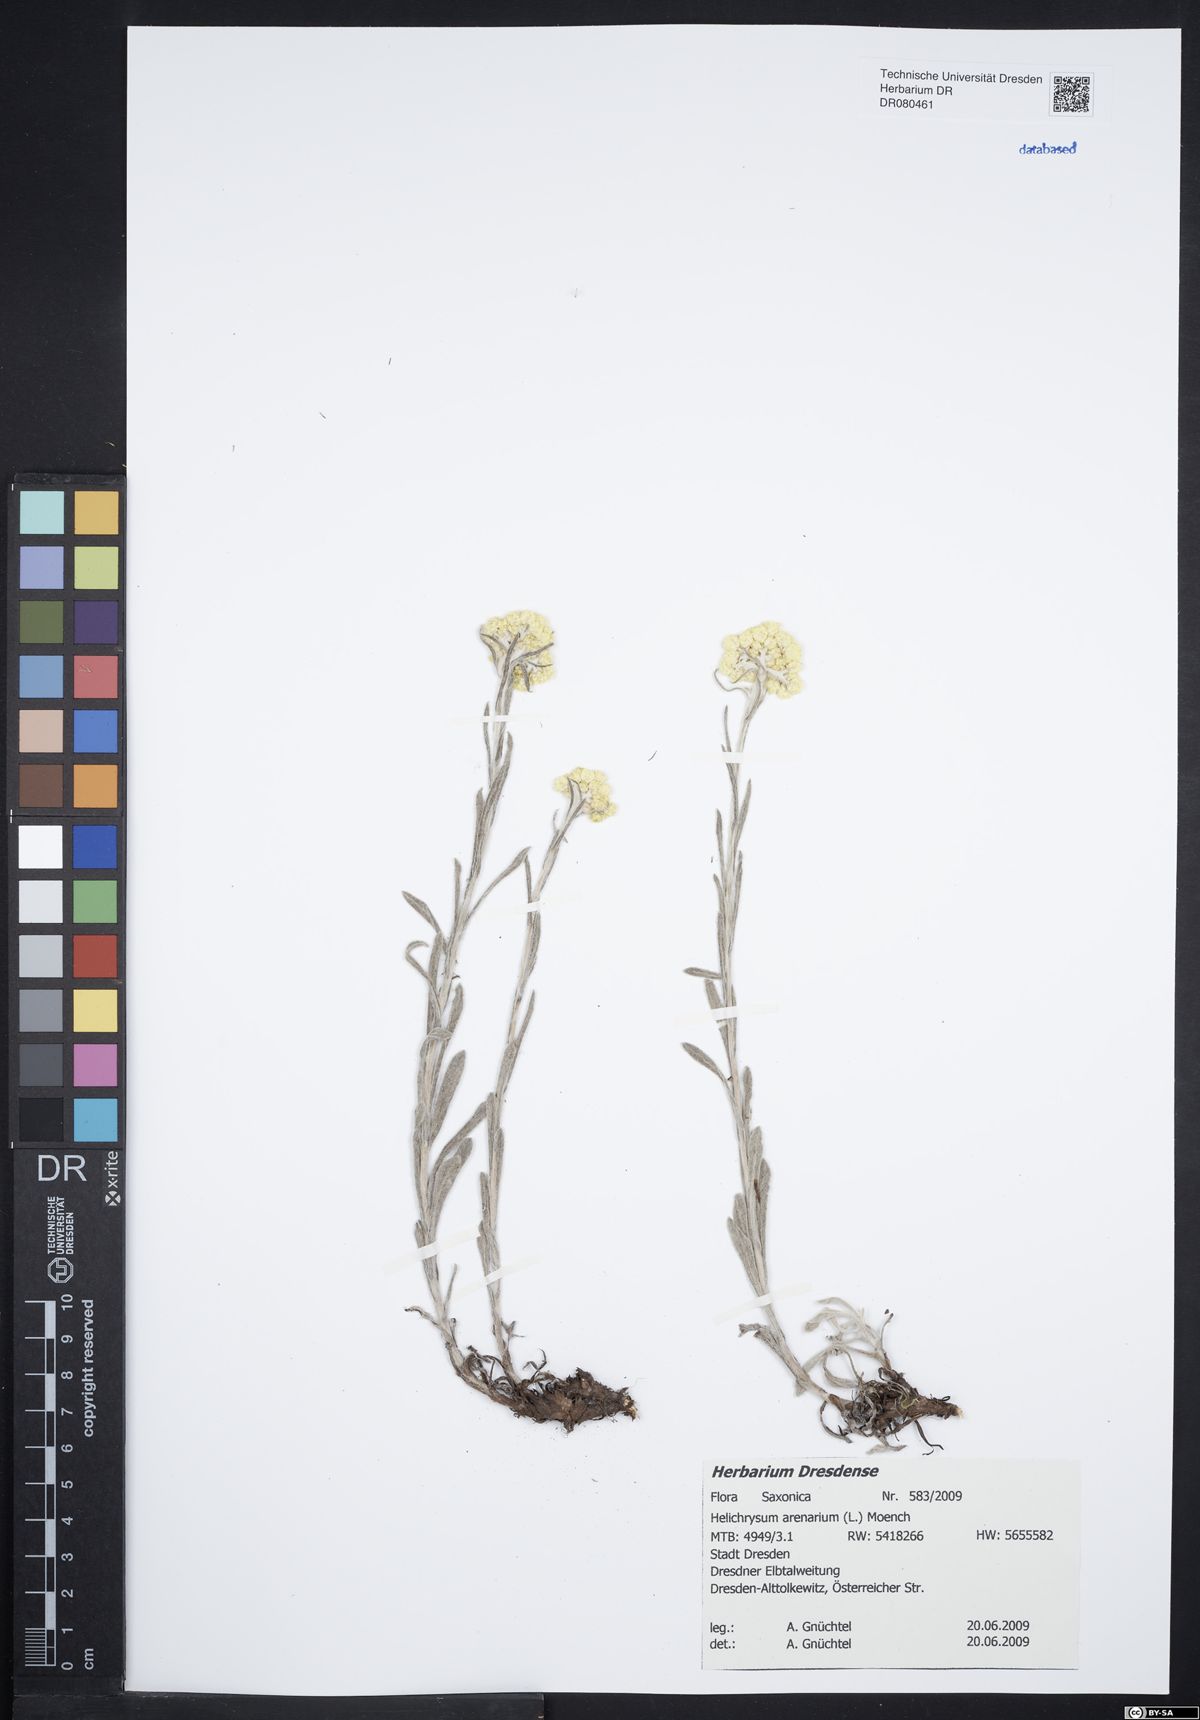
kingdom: Plantae
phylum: Tracheophyta
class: Magnoliopsida
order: Asterales
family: Asteraceae
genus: Helichrysum
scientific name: Helichrysum arenarium
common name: Strawflower
